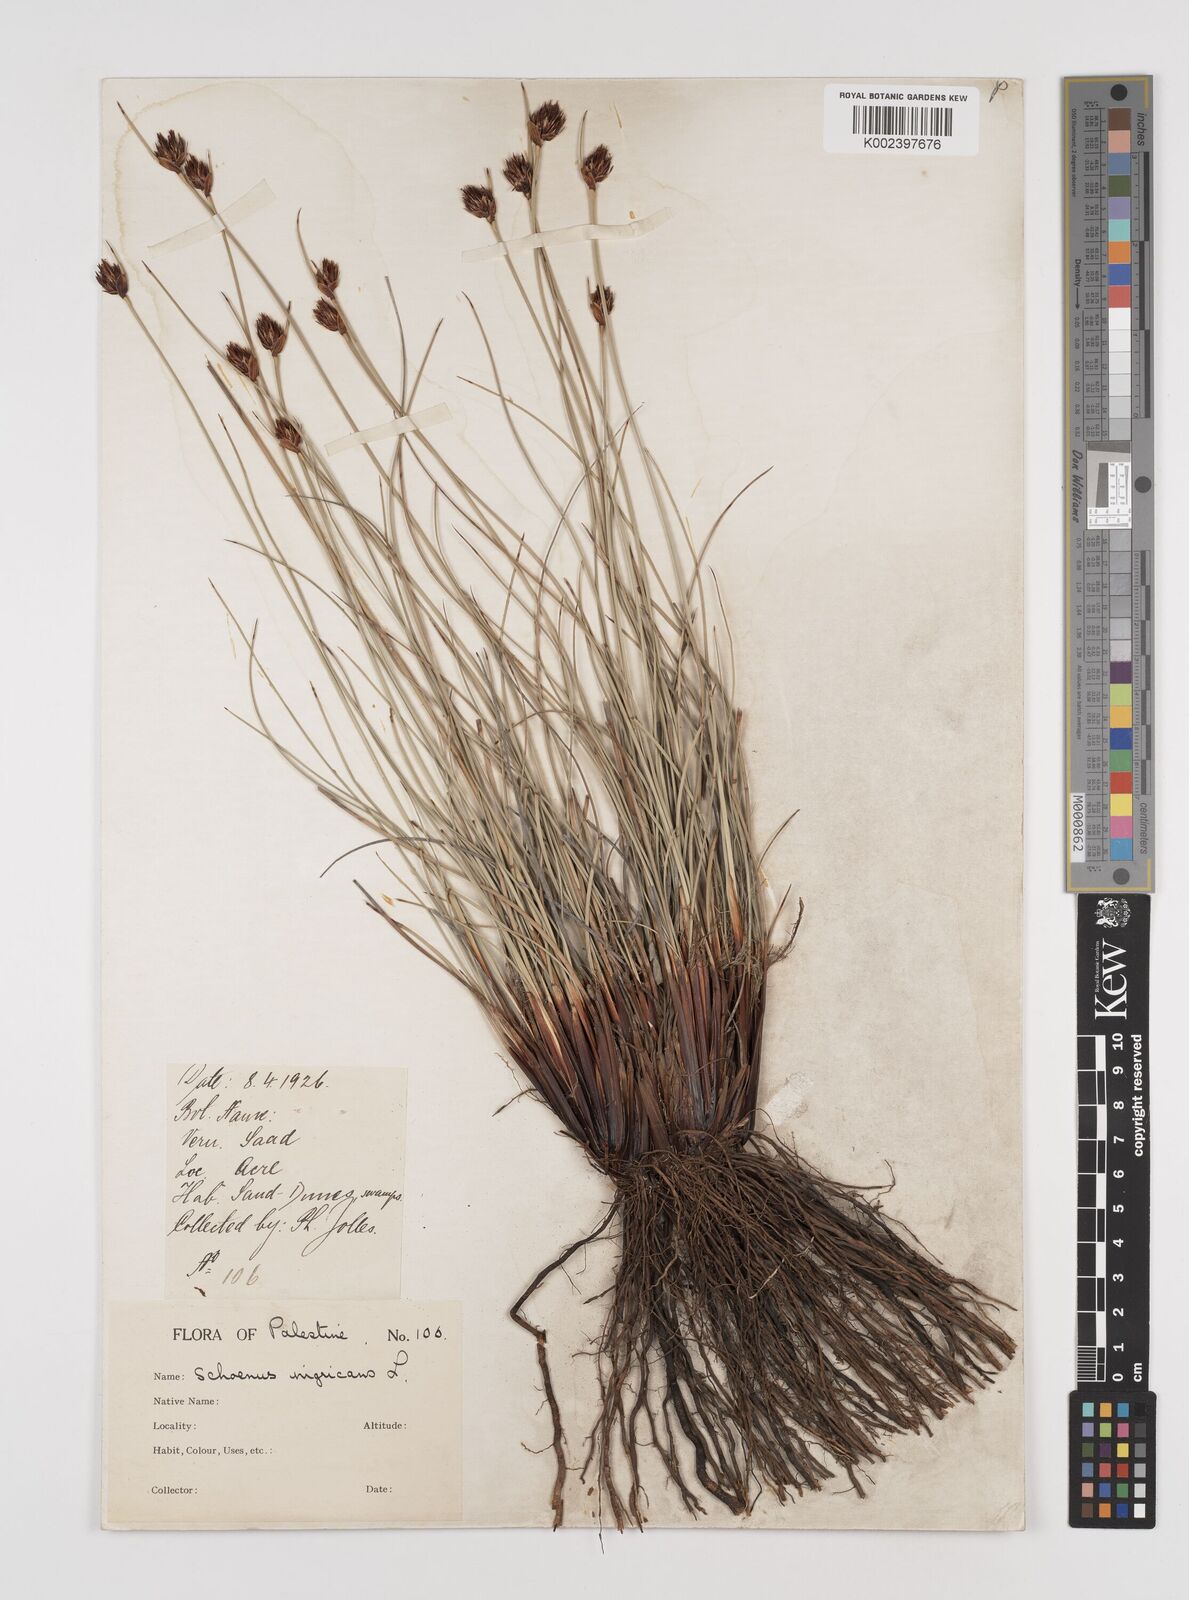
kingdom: Plantae
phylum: Tracheophyta
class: Liliopsida
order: Poales
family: Cyperaceae
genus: Schoenus
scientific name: Schoenus nigricans
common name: Black bog-rush
